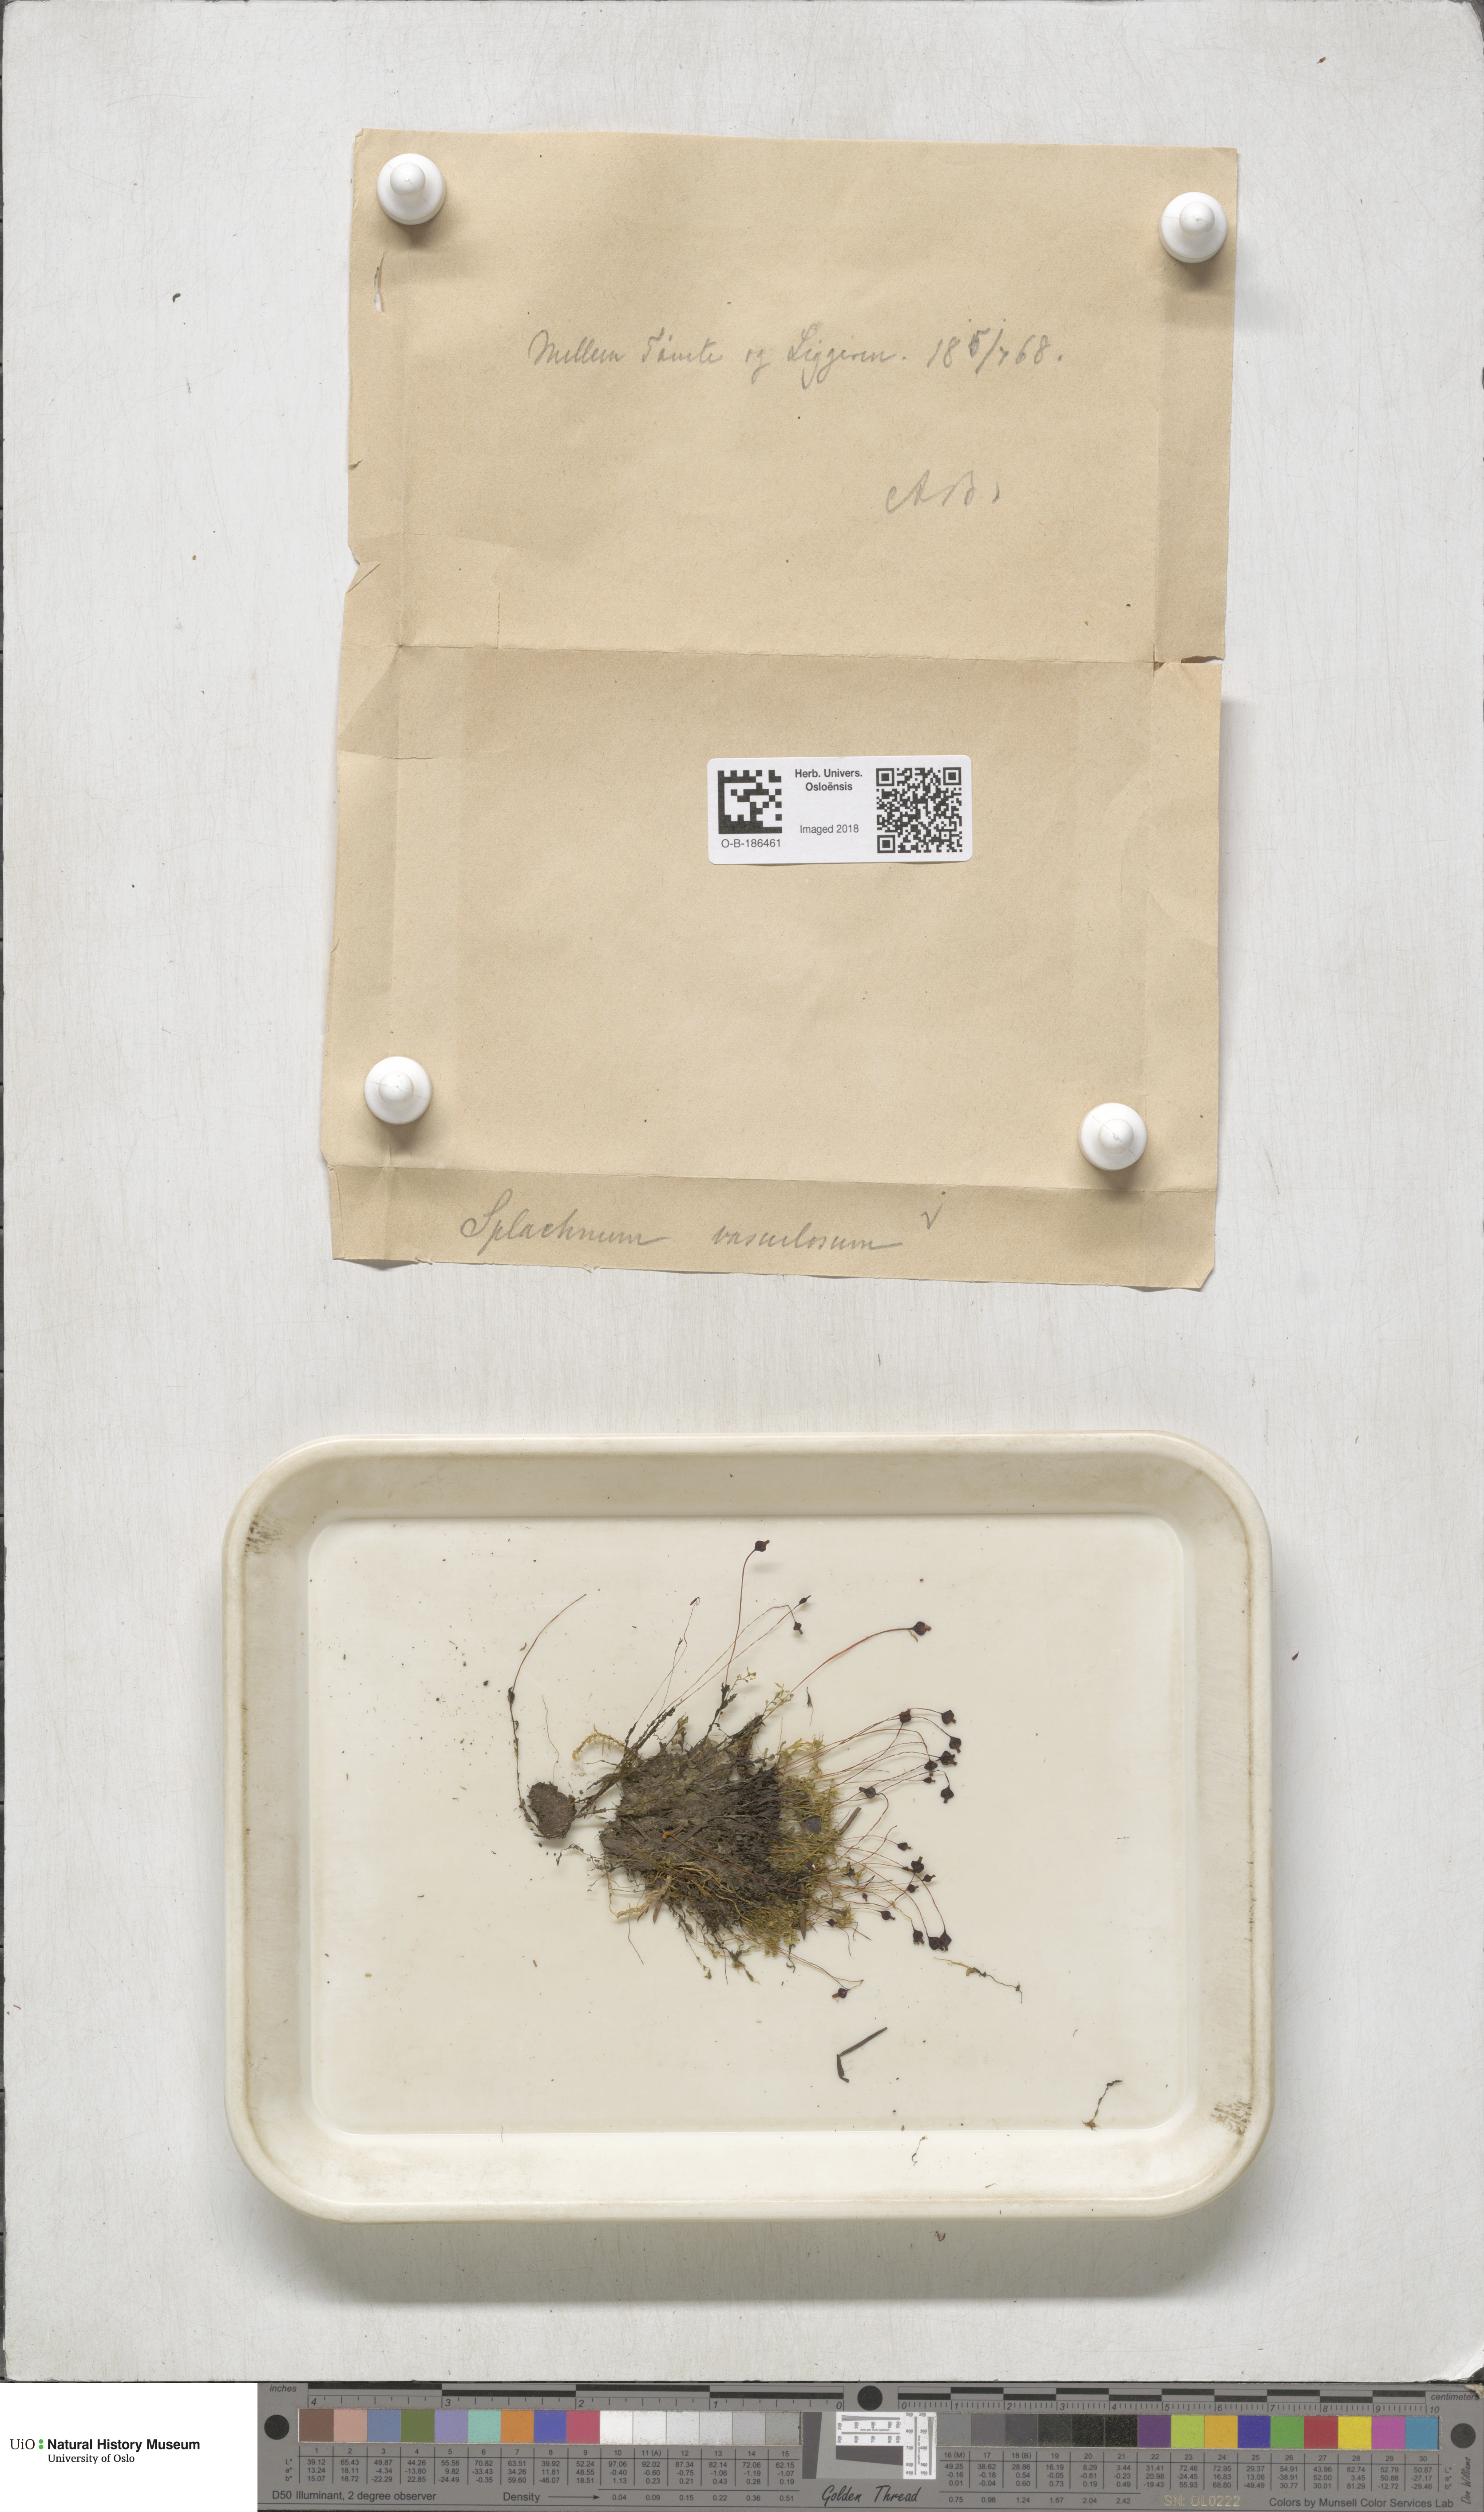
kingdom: Plantae
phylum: Bryophyta
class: Bryopsida
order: Splachnales
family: Splachnaceae
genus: Splachnum
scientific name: Splachnum vasculosum
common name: Rugged dung moss
